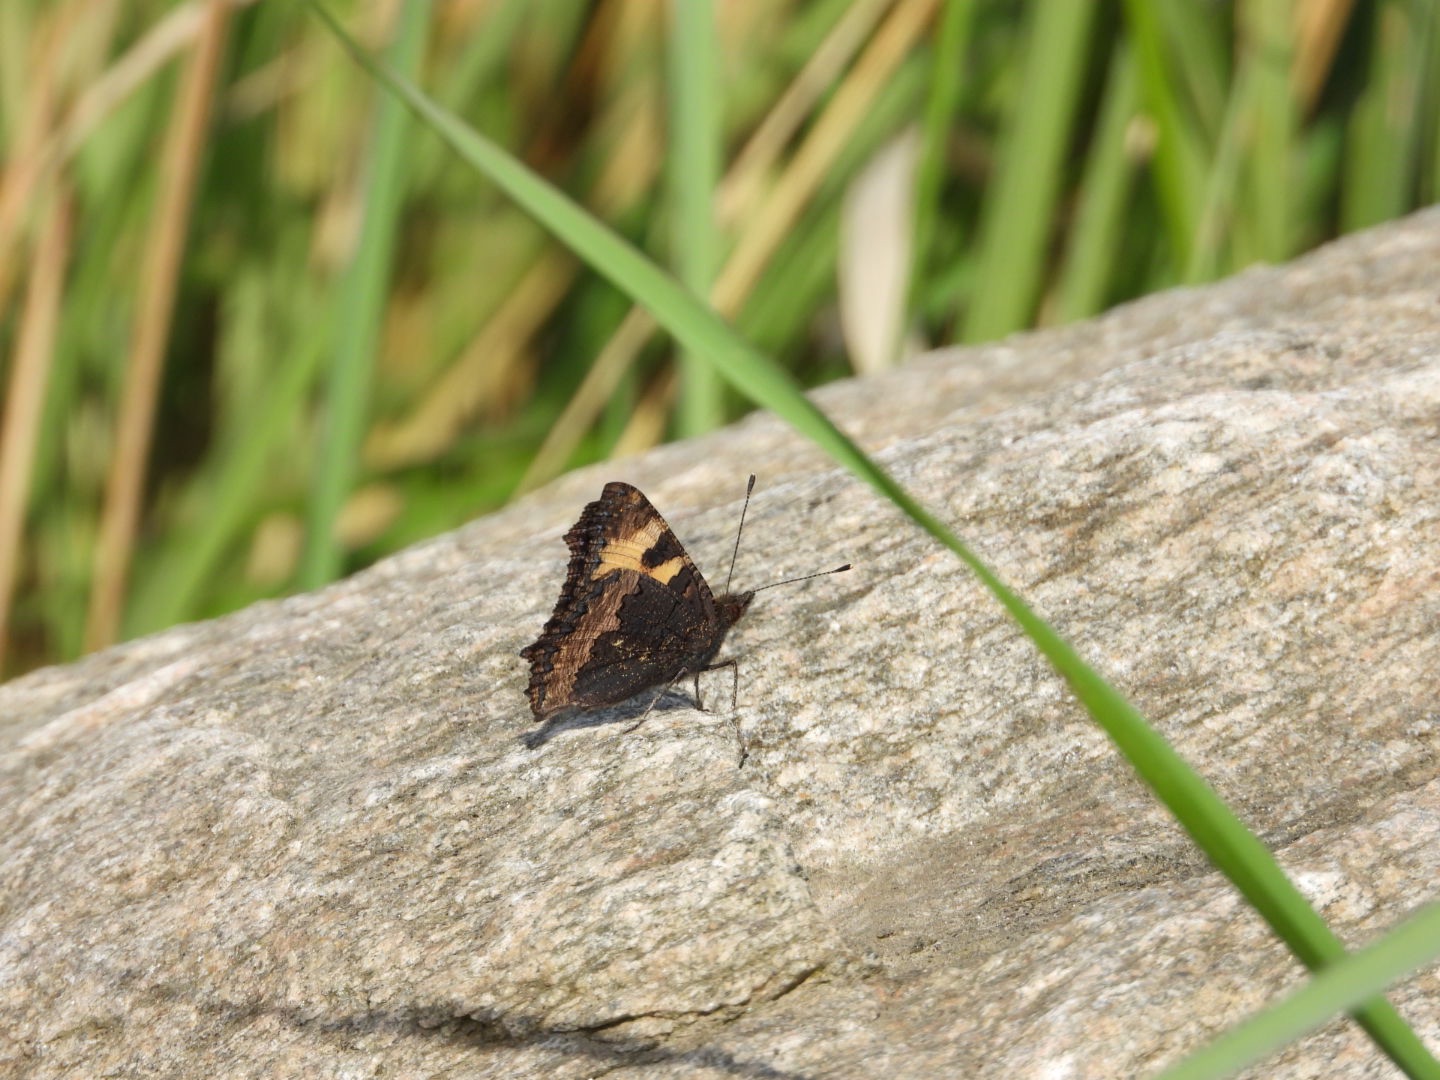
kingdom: Animalia
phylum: Arthropoda
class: Insecta
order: Lepidoptera
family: Nymphalidae
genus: Aglais
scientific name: Aglais urticae
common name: Nældens takvinge
